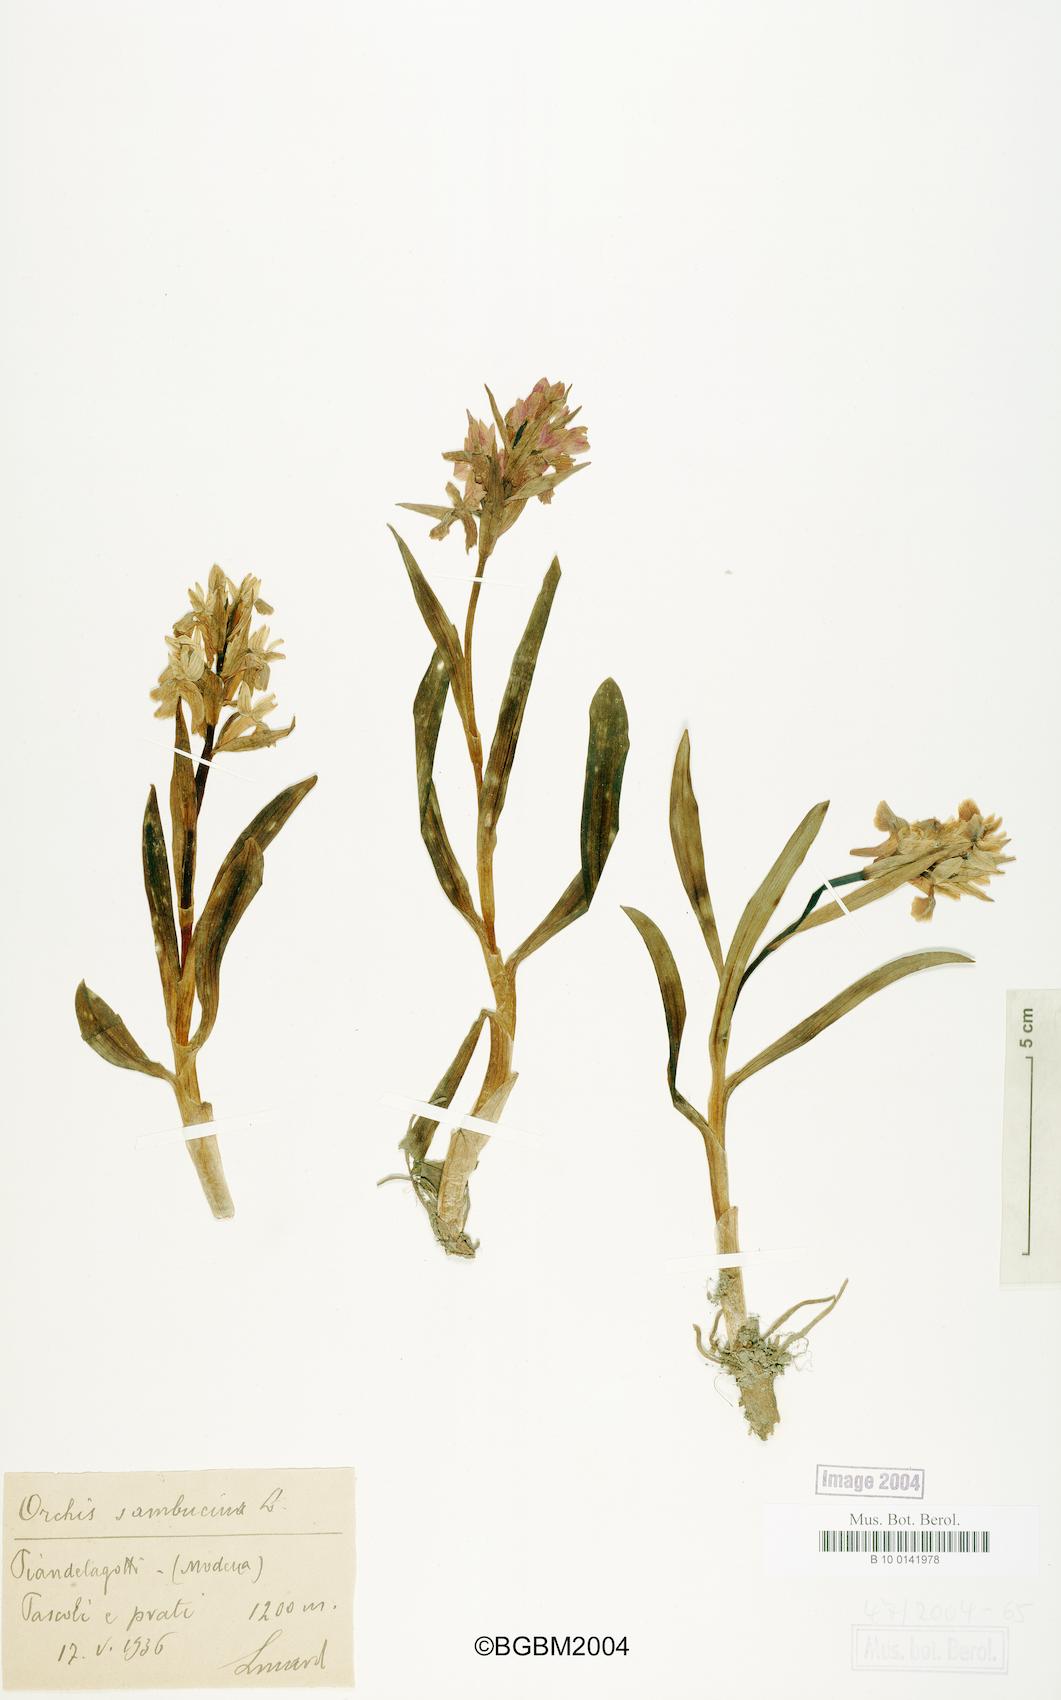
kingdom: Plantae
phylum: Tracheophyta
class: Liliopsida
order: Asparagales
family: Orchidaceae
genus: Dactylorhiza
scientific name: Dactylorhiza sambucina
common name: Elder-flowered orchid
